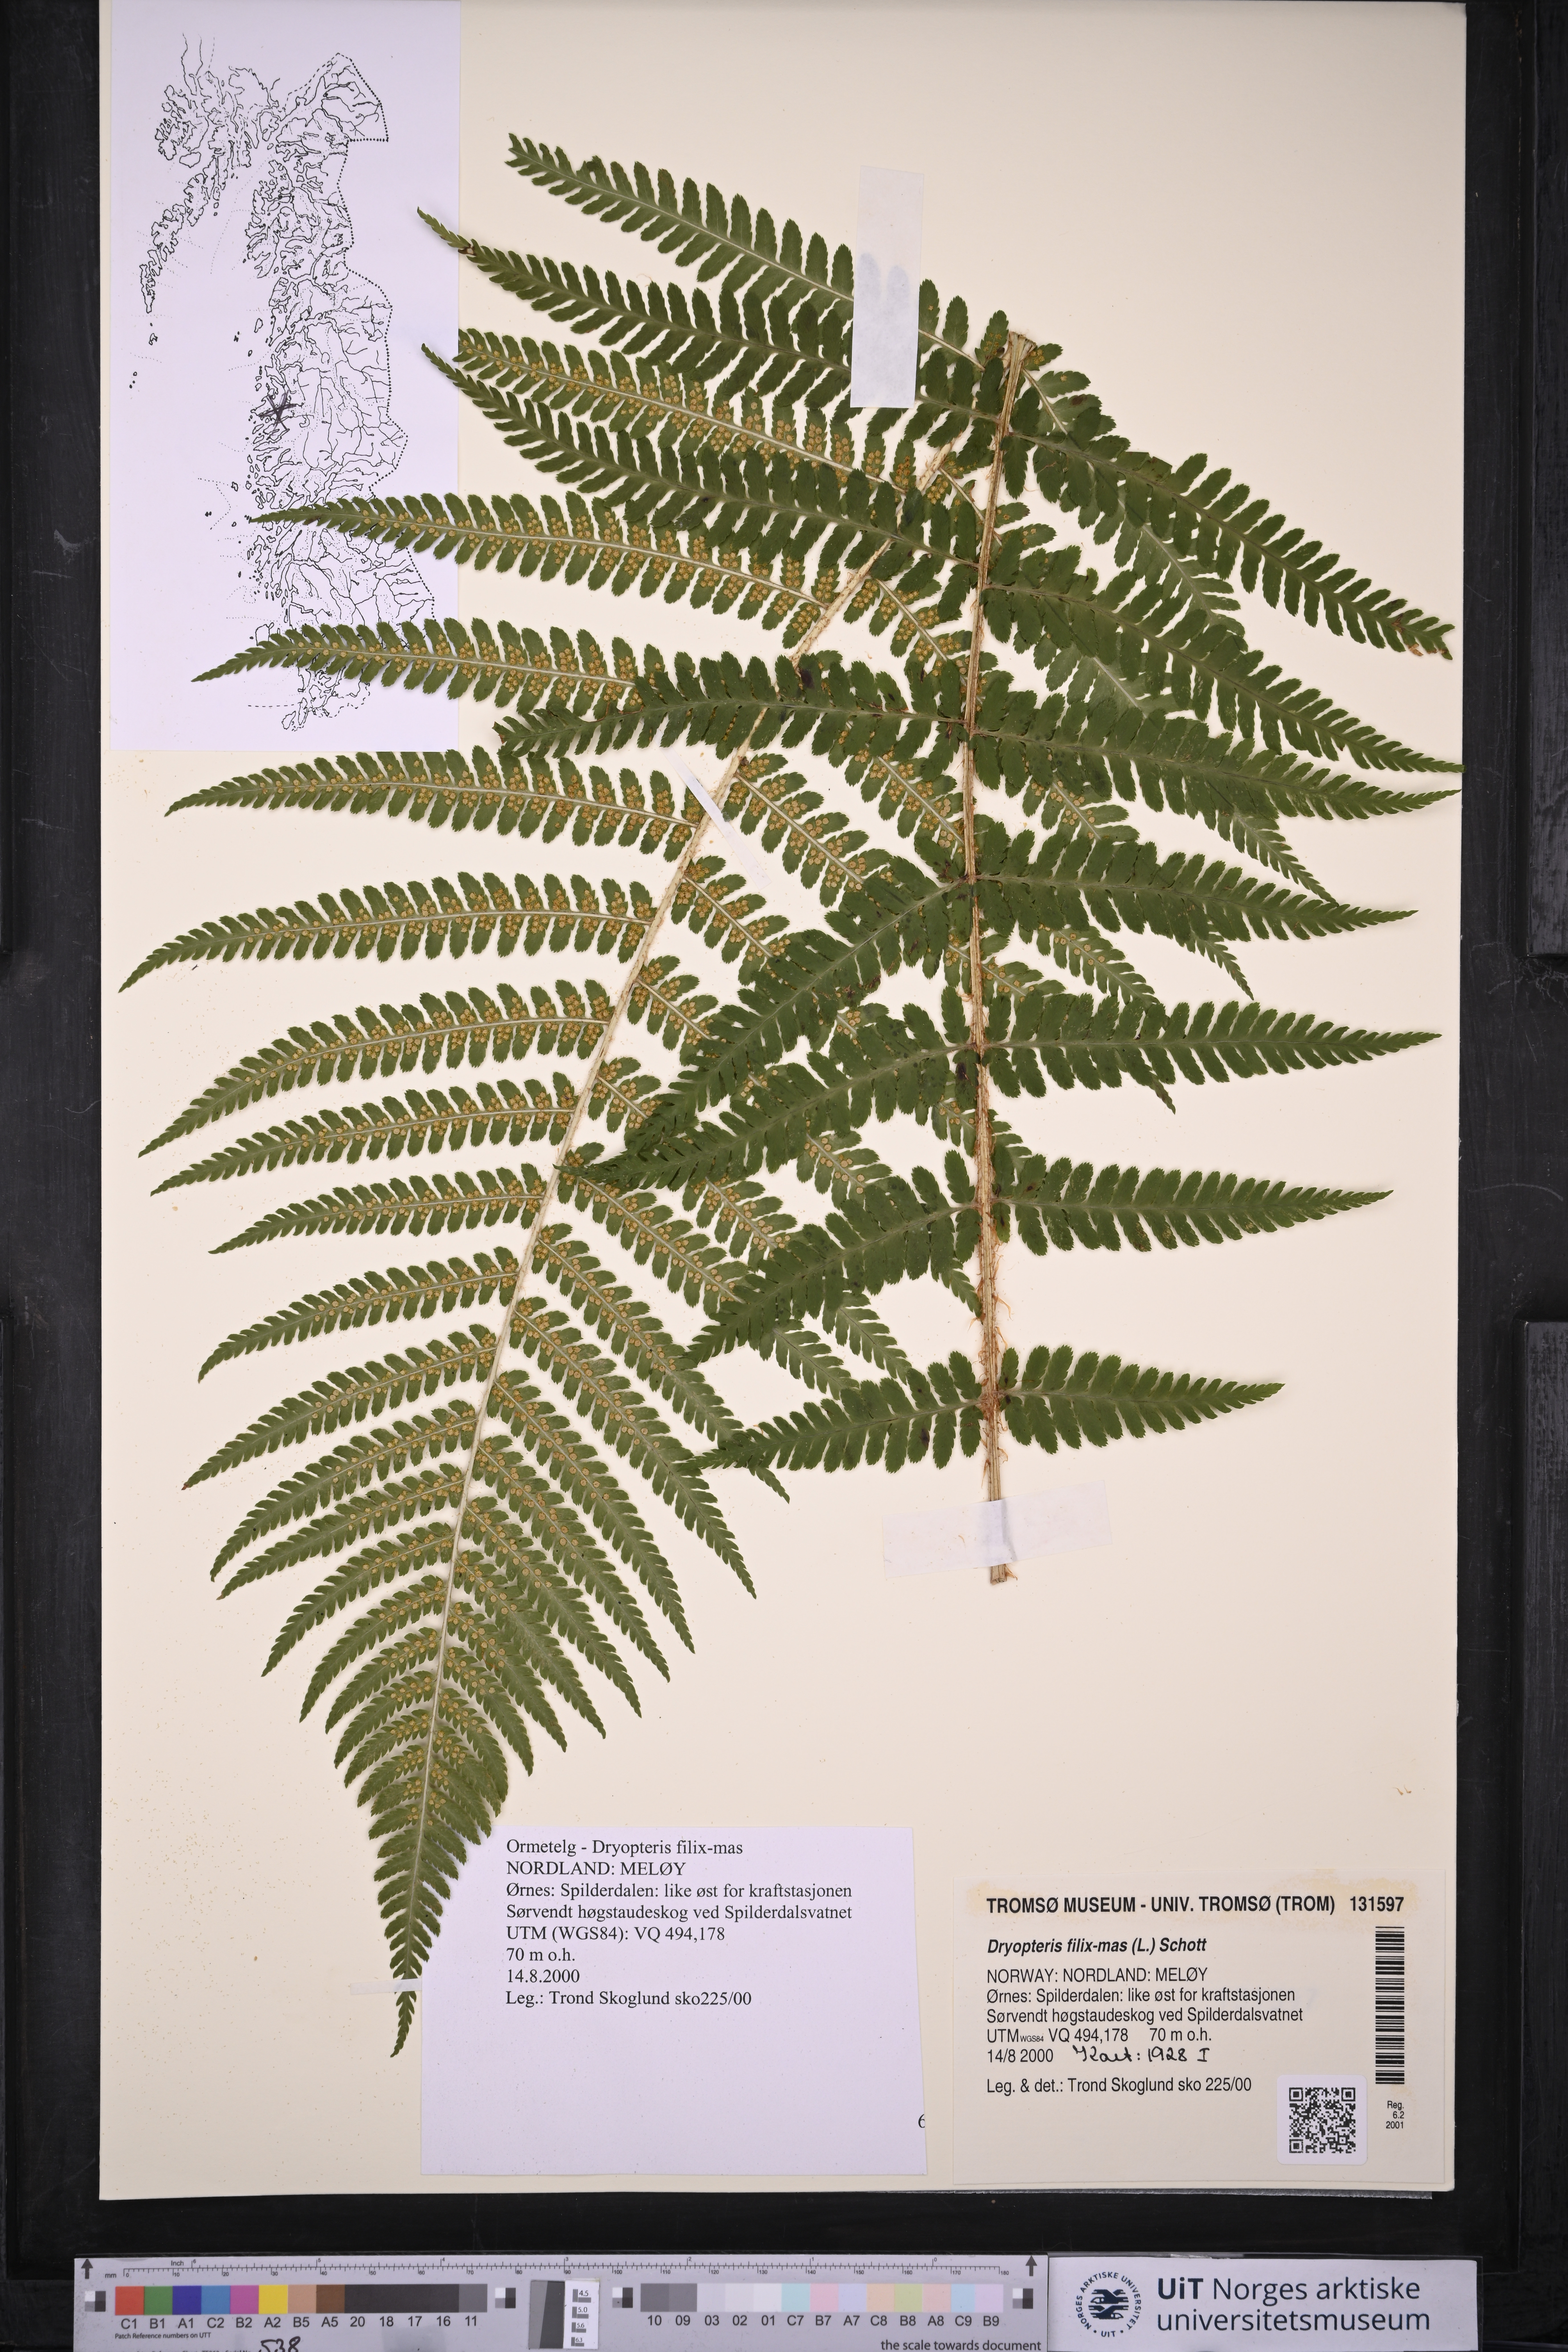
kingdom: Plantae
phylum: Tracheophyta
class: Polypodiopsida
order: Polypodiales
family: Dryopteridaceae
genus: Dryopteris
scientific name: Dryopteris filix-mas
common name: Male fern
